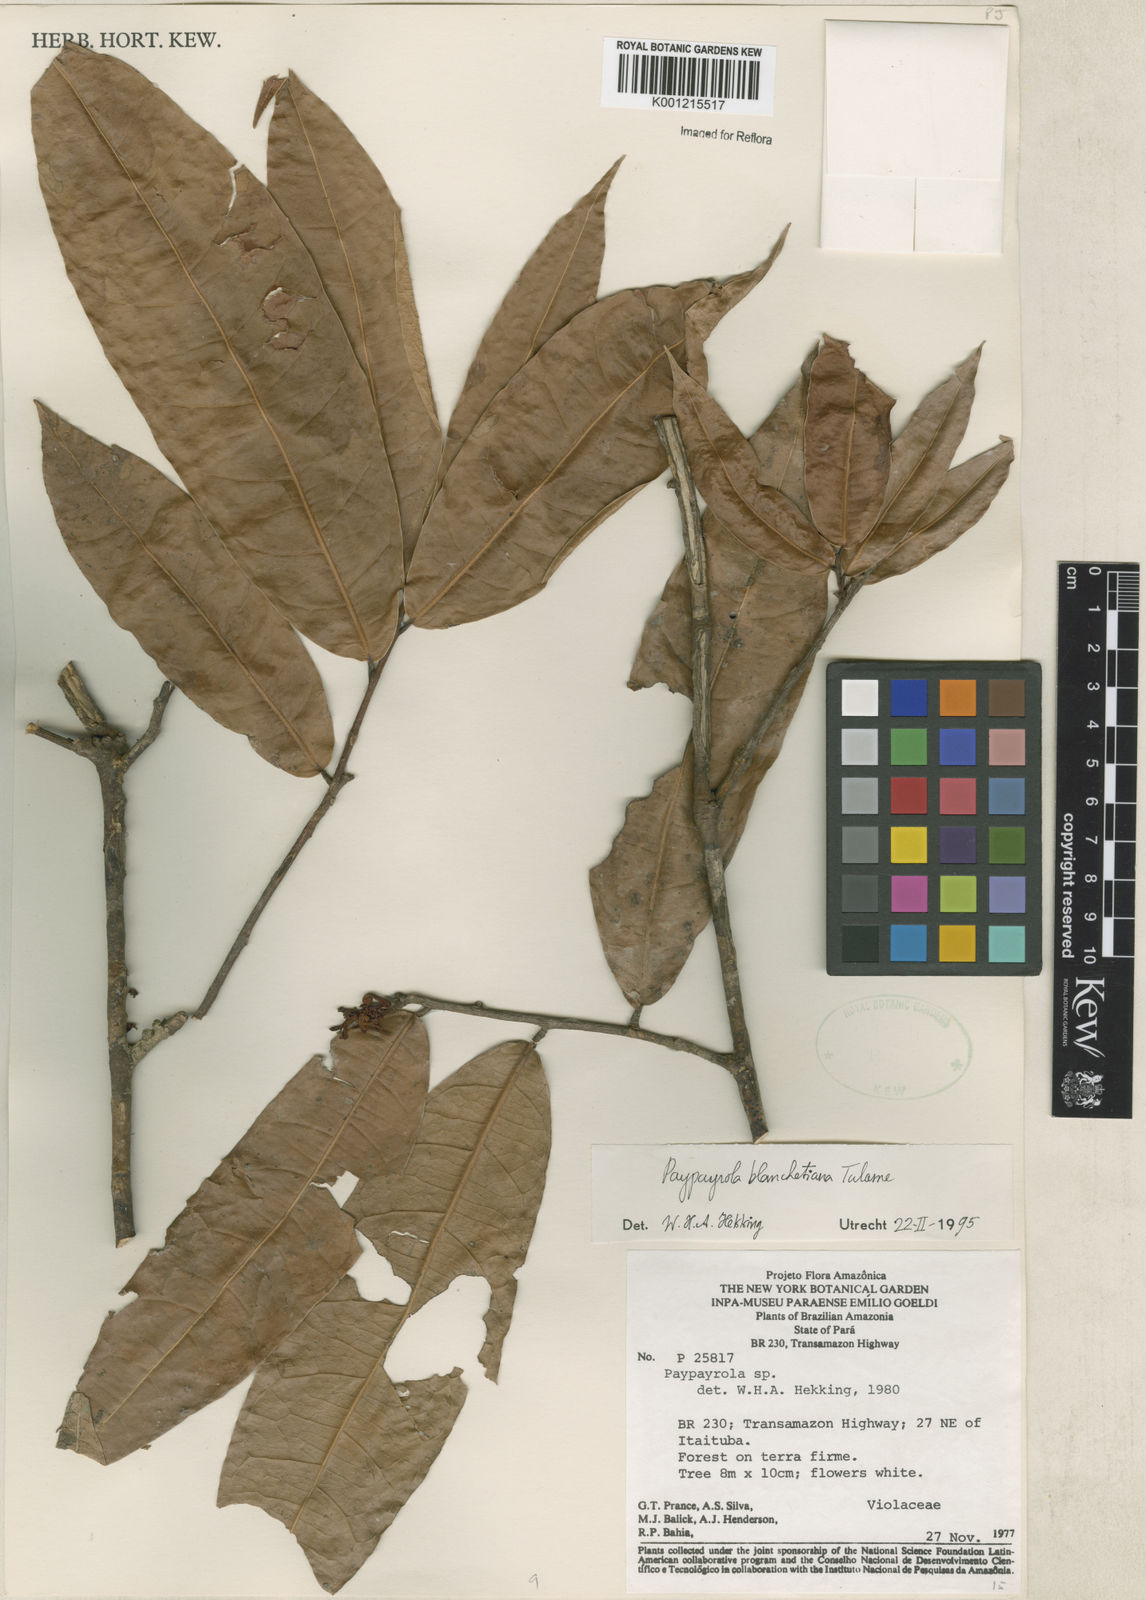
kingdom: Plantae
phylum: Tracheophyta
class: Magnoliopsida
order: Malpighiales
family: Violaceae
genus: Paypayrola
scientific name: Paypayrola blanchetiana
